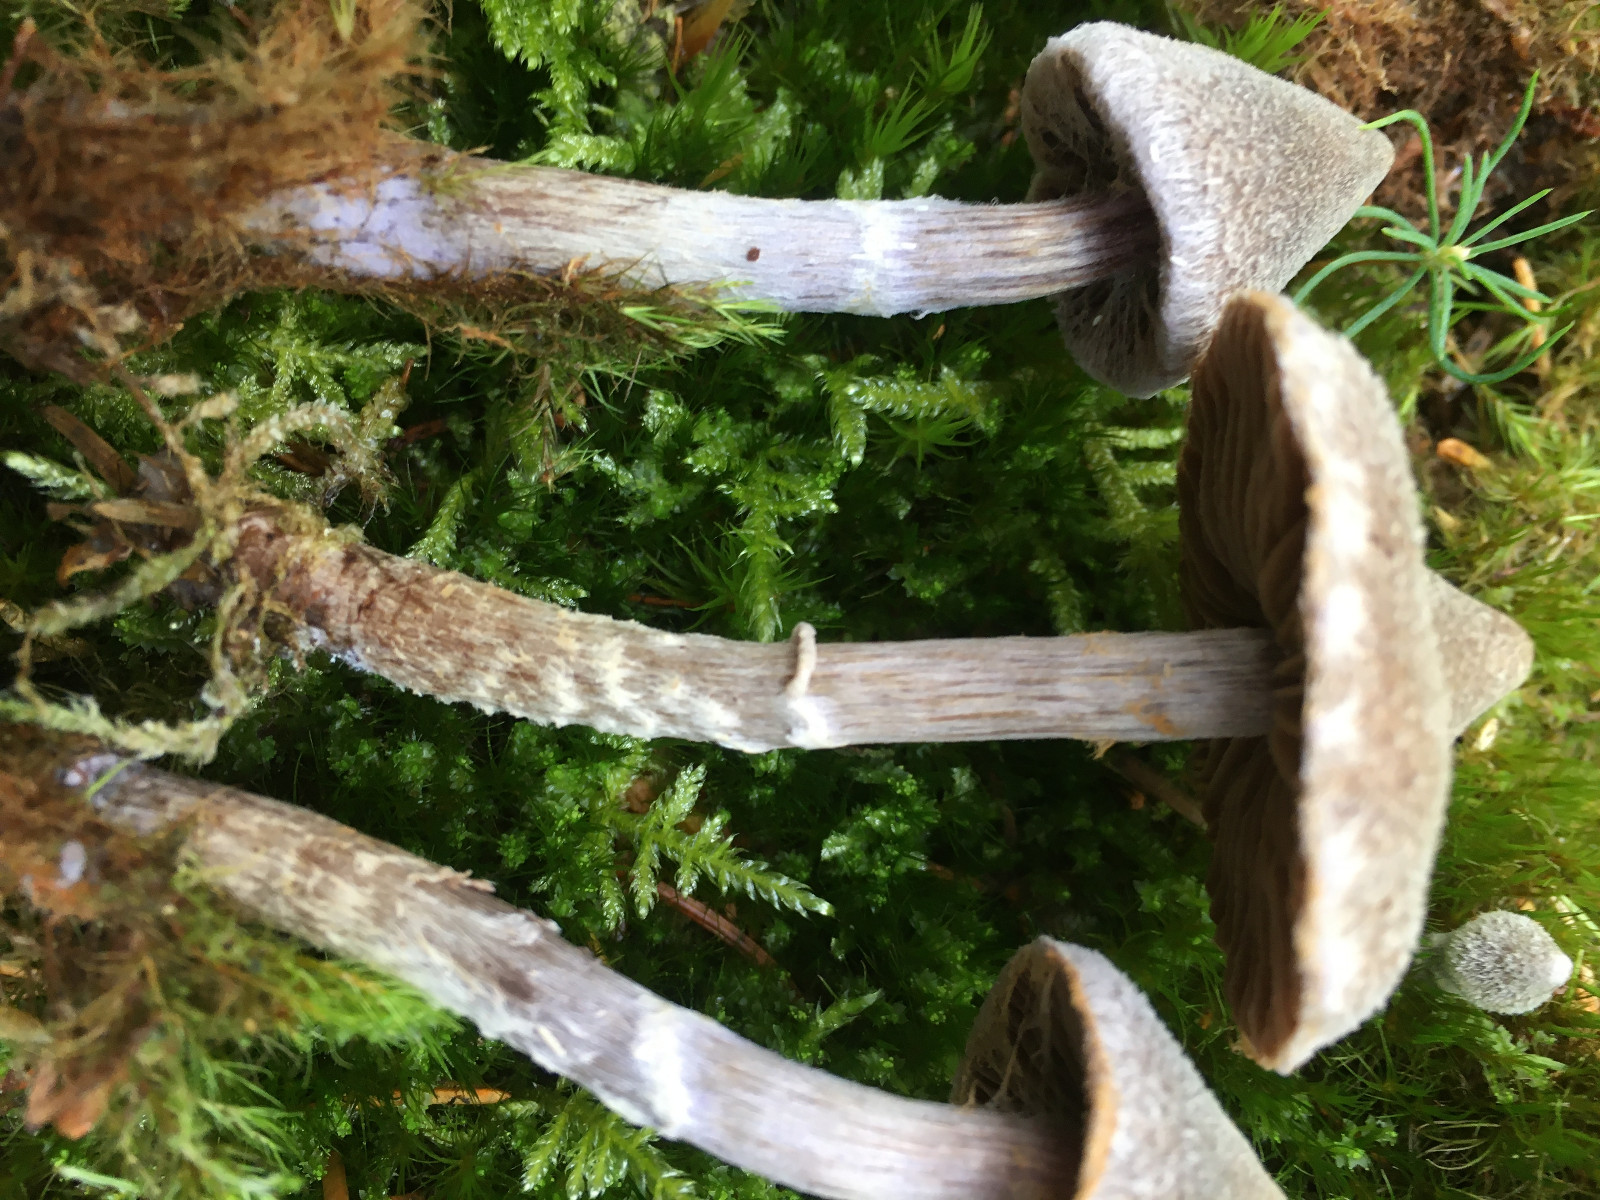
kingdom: Fungi
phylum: Basidiomycota
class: Agaricomycetes
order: Agaricales
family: Cortinariaceae
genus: Cortinarius
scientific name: Cortinarius flexipes
